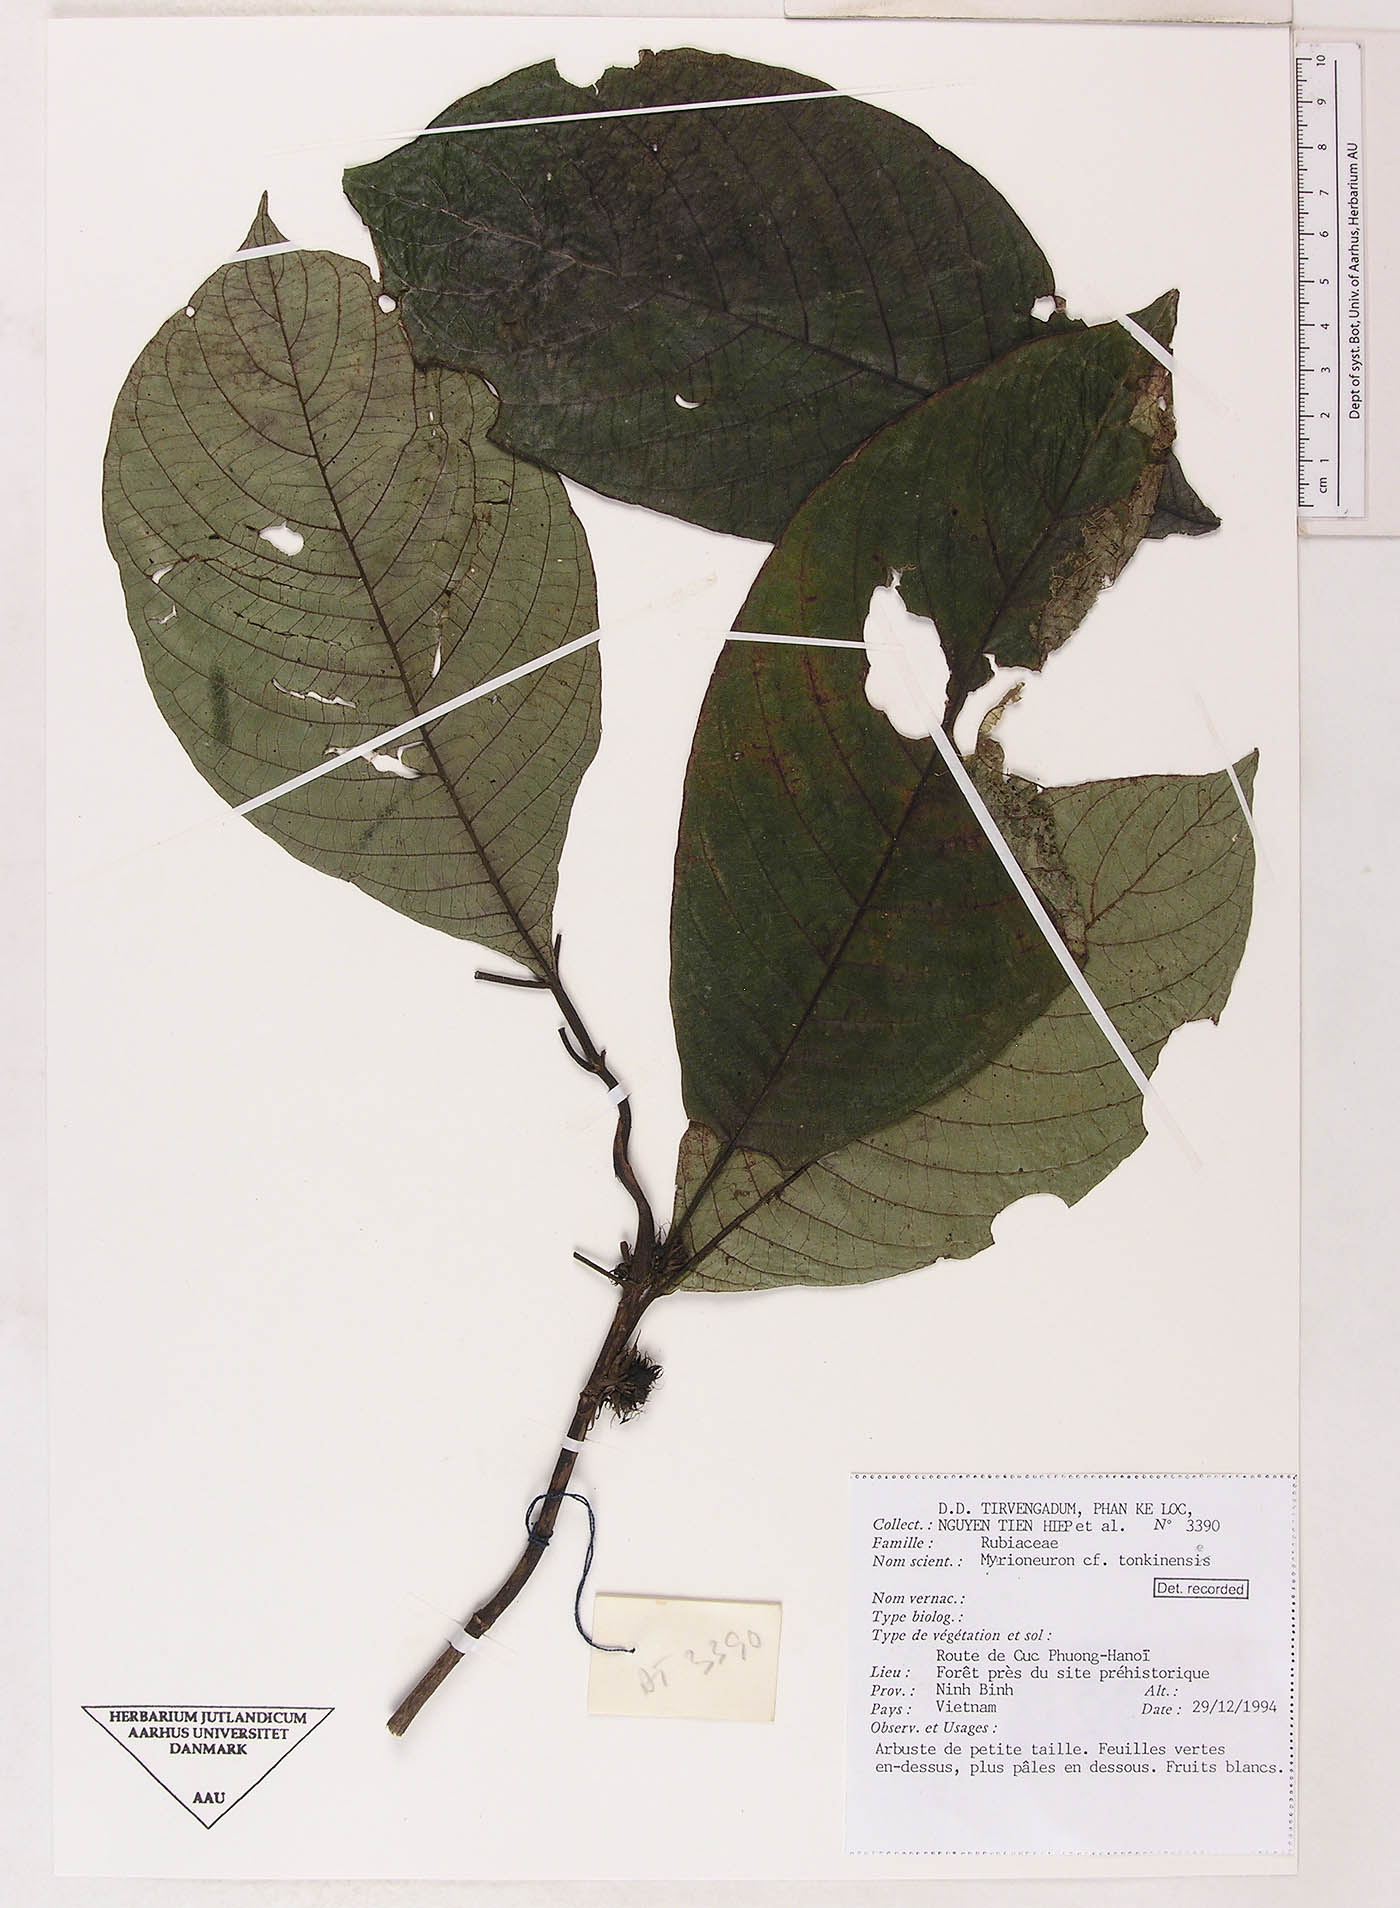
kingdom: Plantae
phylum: Tracheophyta
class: Magnoliopsida
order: Gentianales
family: Rubiaceae
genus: Mycetia
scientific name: Mycetia tonkinensis
